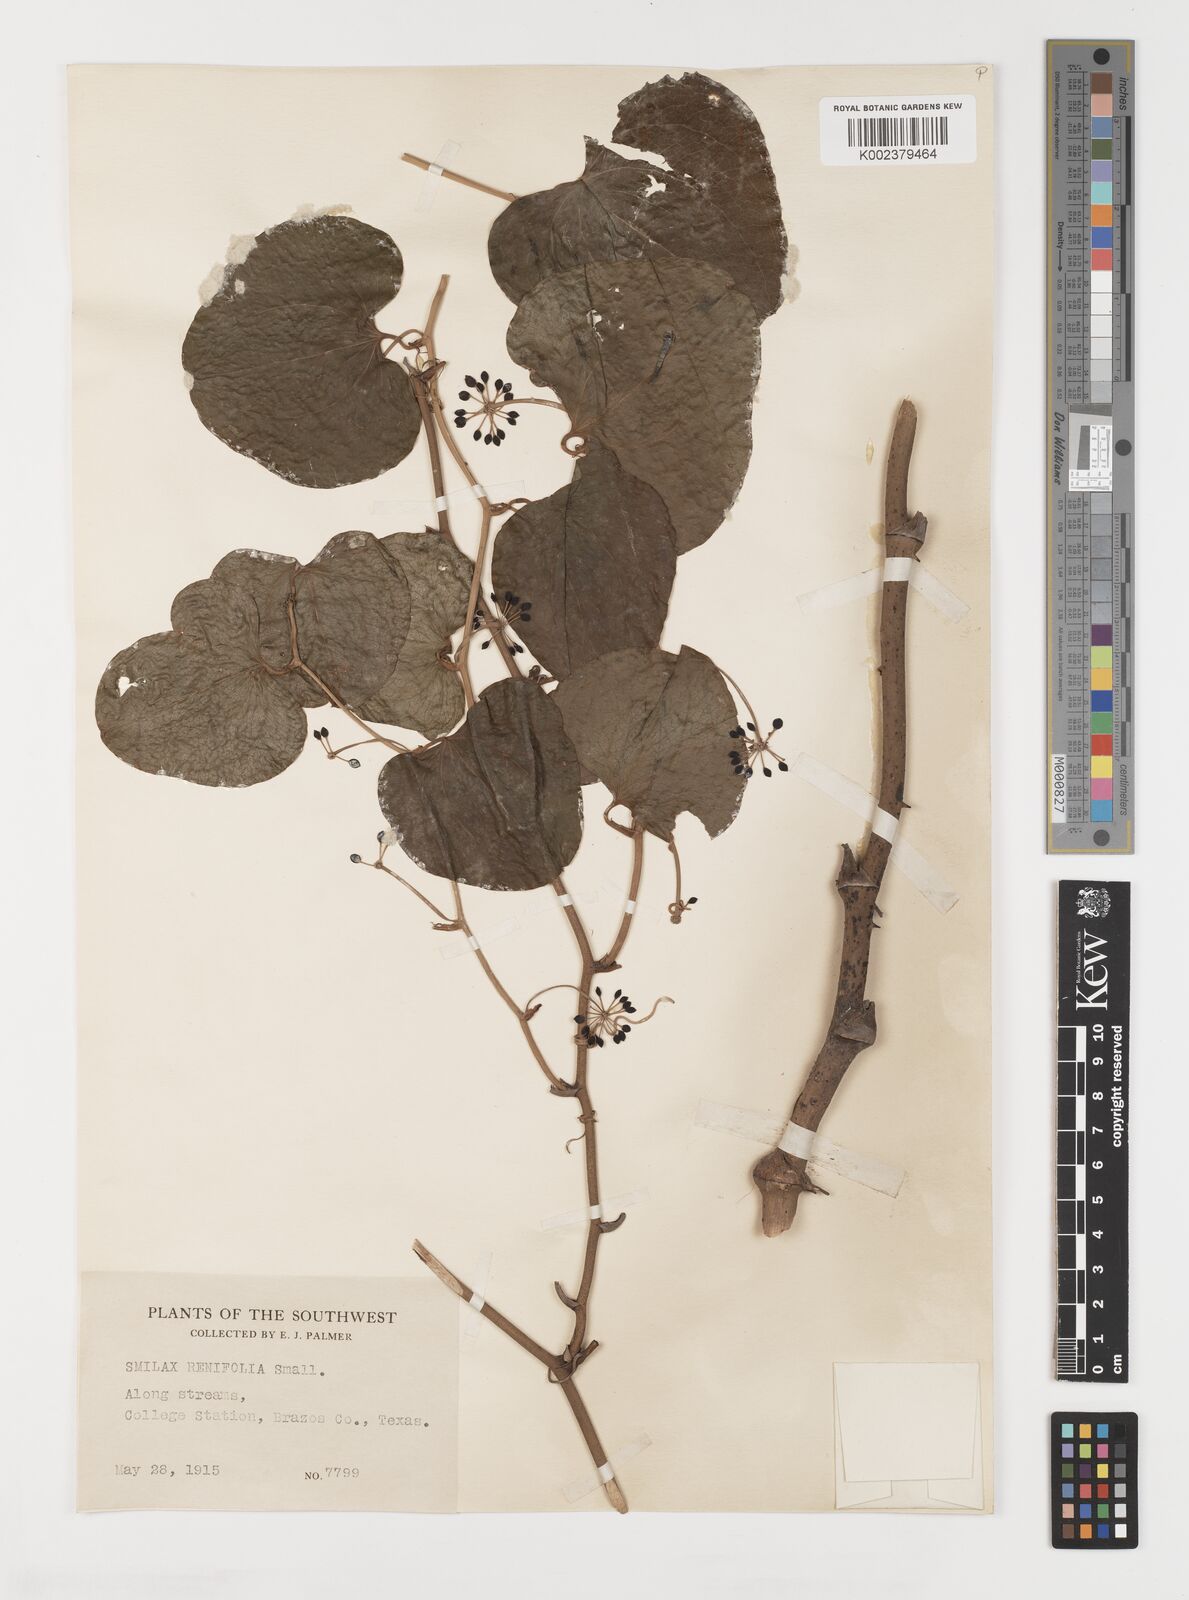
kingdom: Plantae
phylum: Tracheophyta
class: Liliopsida
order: Liliales
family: Smilacaceae
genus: Smilax
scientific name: Smilax bona-nox
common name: Catbrier
